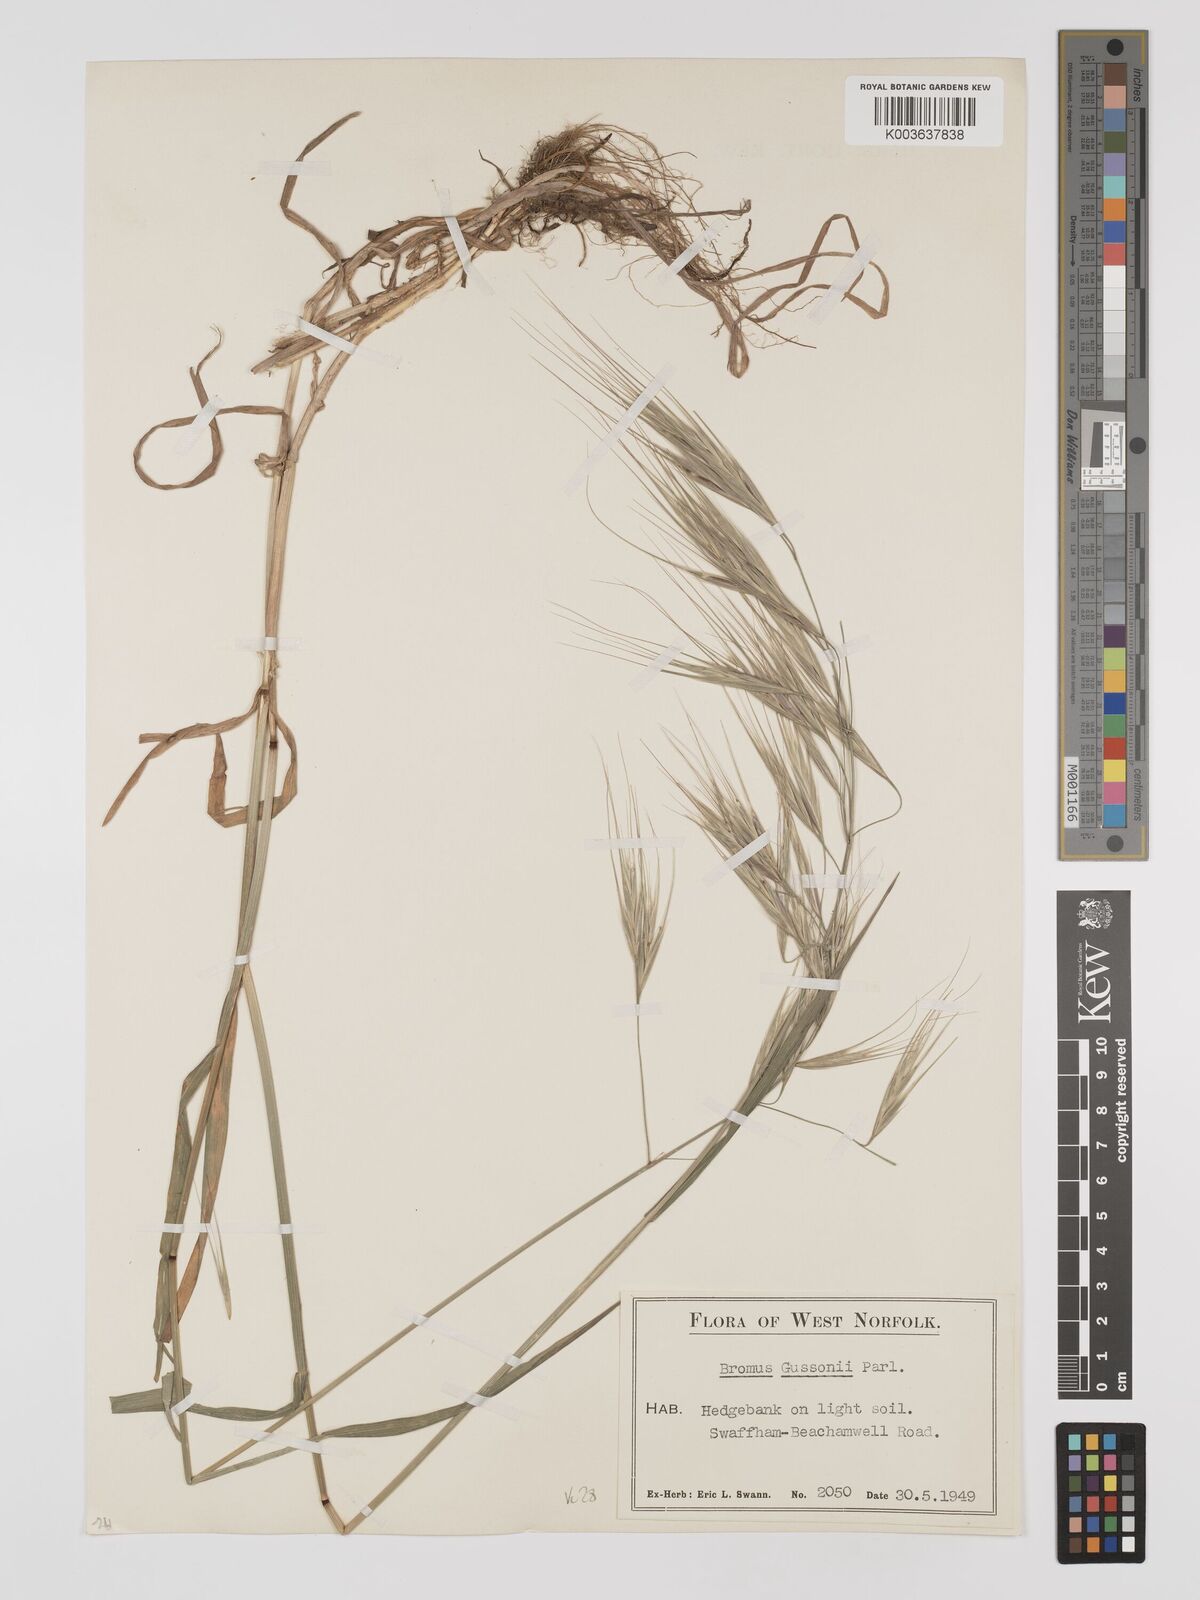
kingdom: Plantae
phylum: Tracheophyta
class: Liliopsida
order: Poales
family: Poaceae
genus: Bromus
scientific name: Bromus
